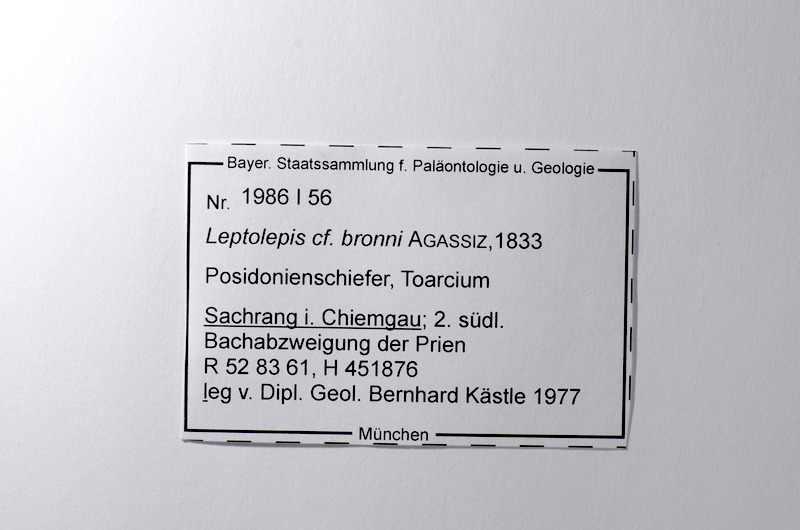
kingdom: Animalia
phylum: Chordata
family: Leptolepididae
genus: Leptolepis
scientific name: Leptolepis coryphaenoides
